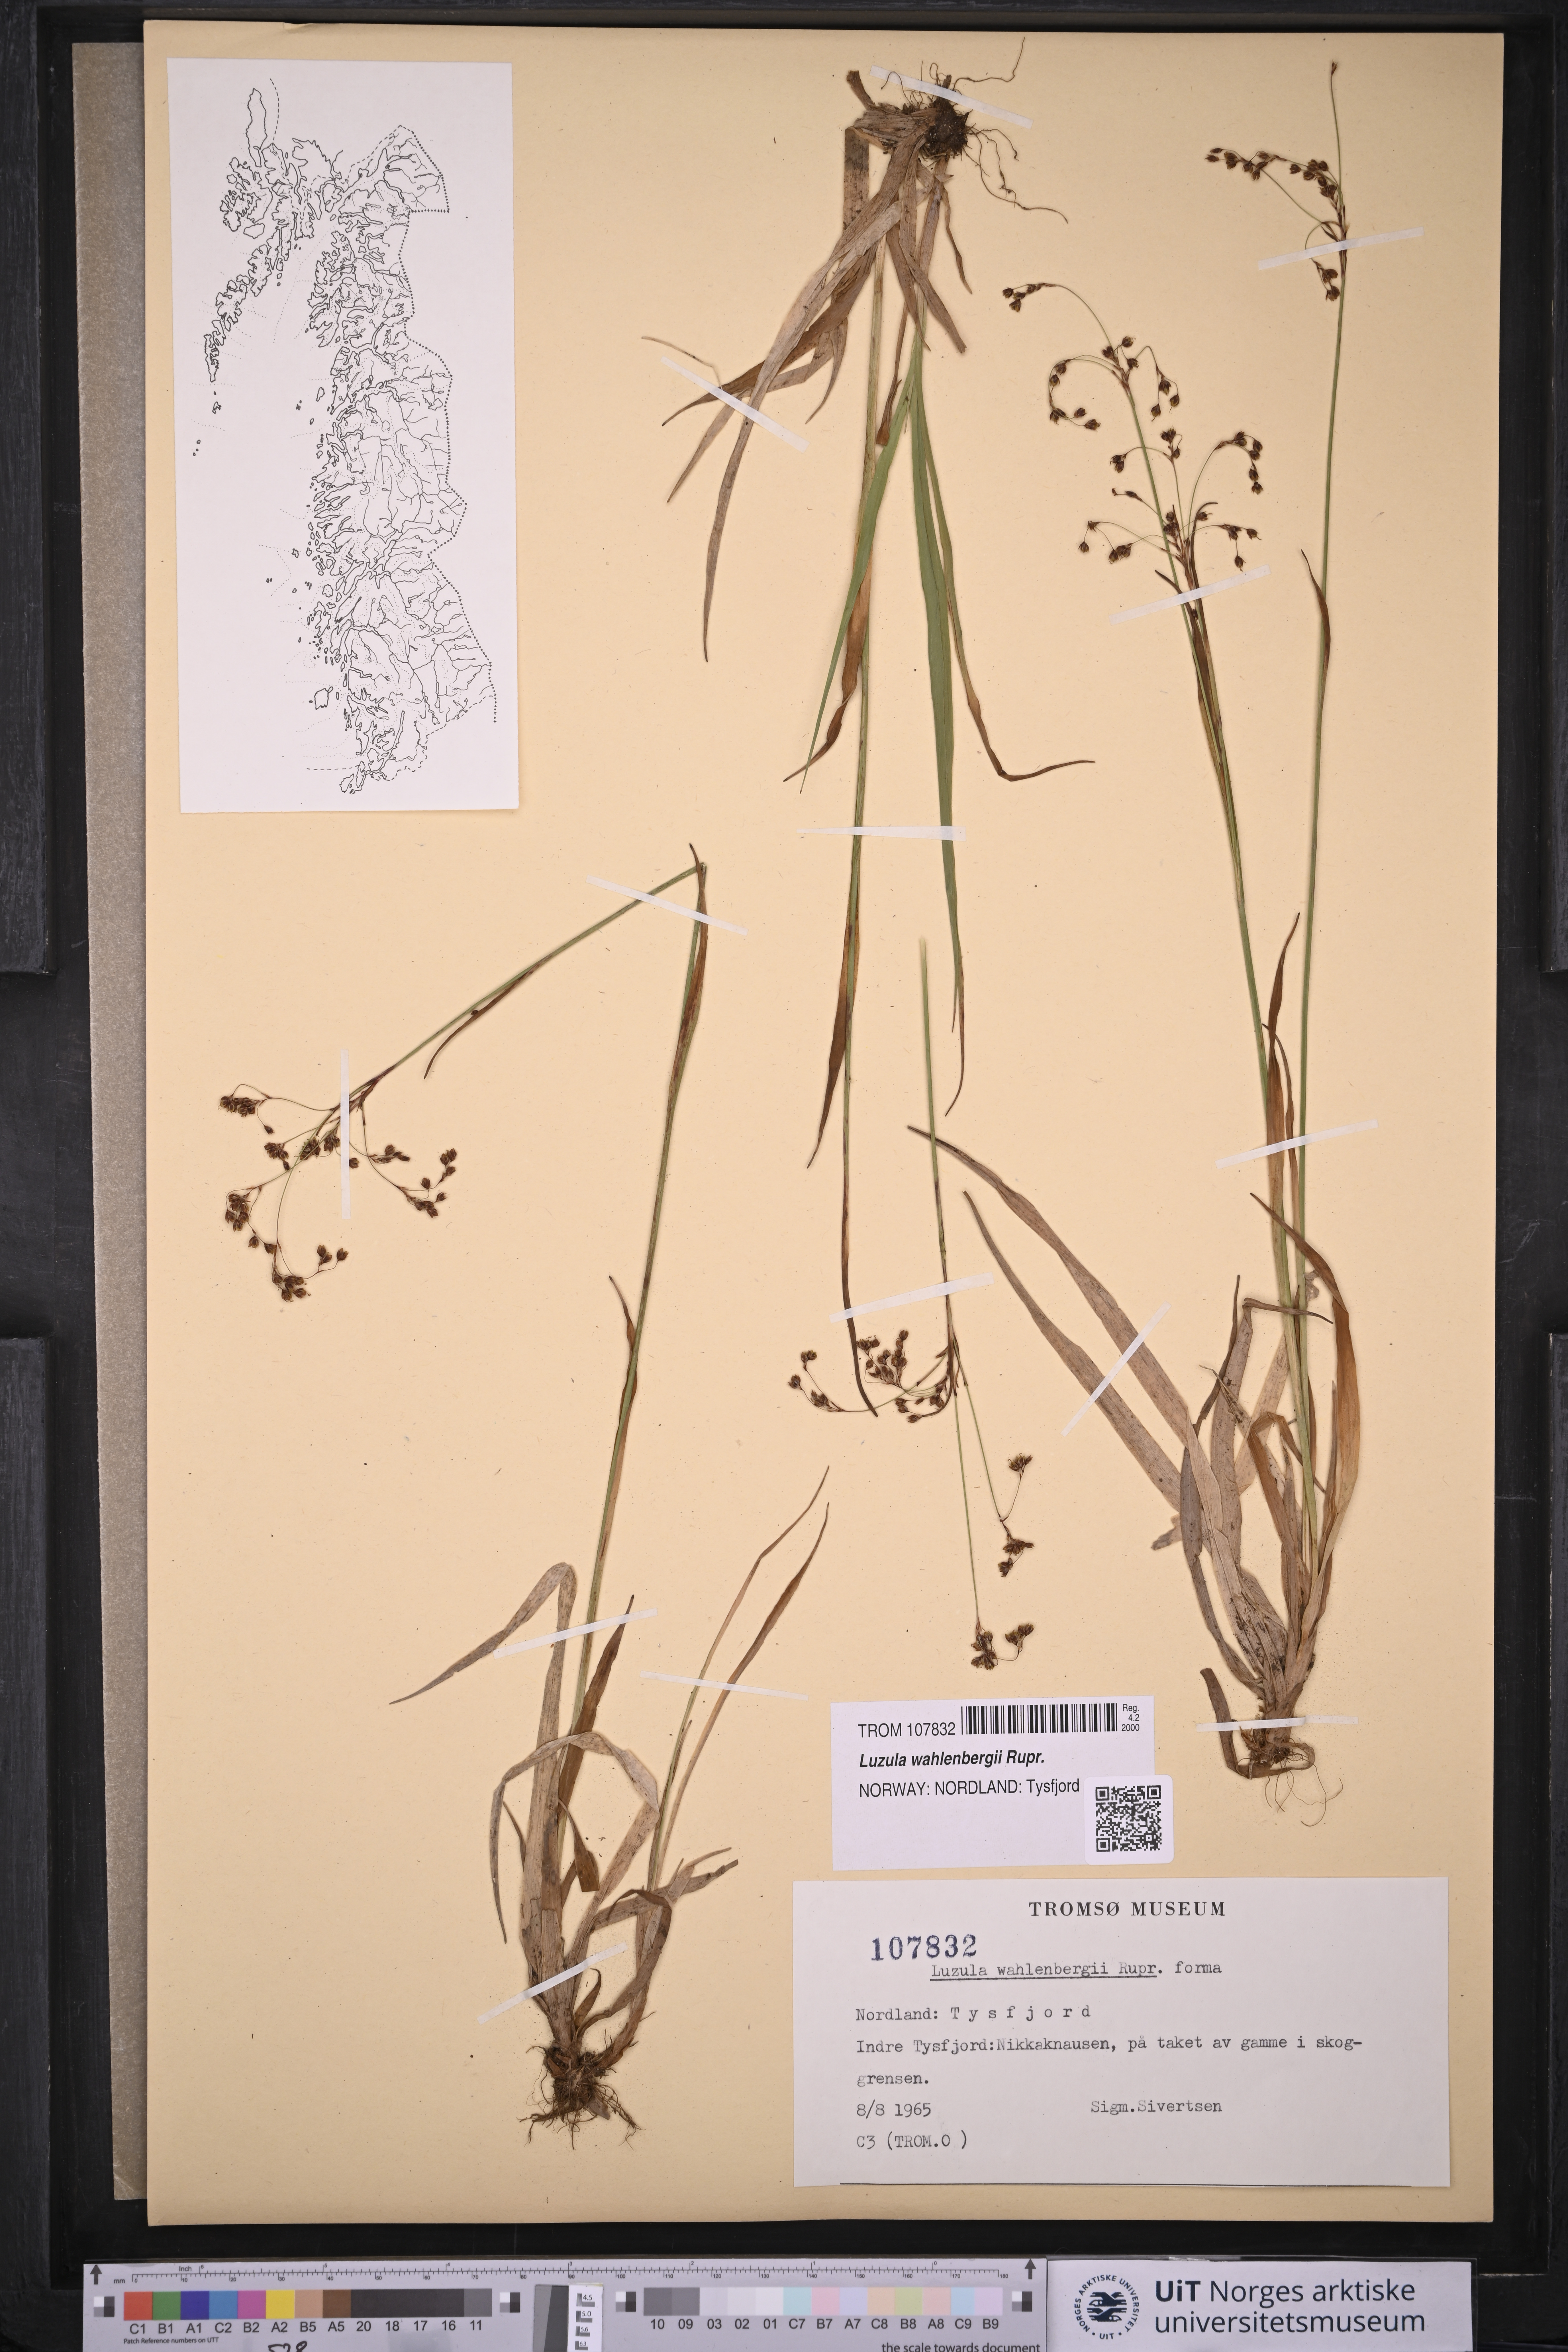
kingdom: Plantae
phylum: Tracheophyta
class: Liliopsida
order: Poales
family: Juncaceae
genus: Luzula
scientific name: Luzula wahlenbergii
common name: Wahlenberg's wood-rush
